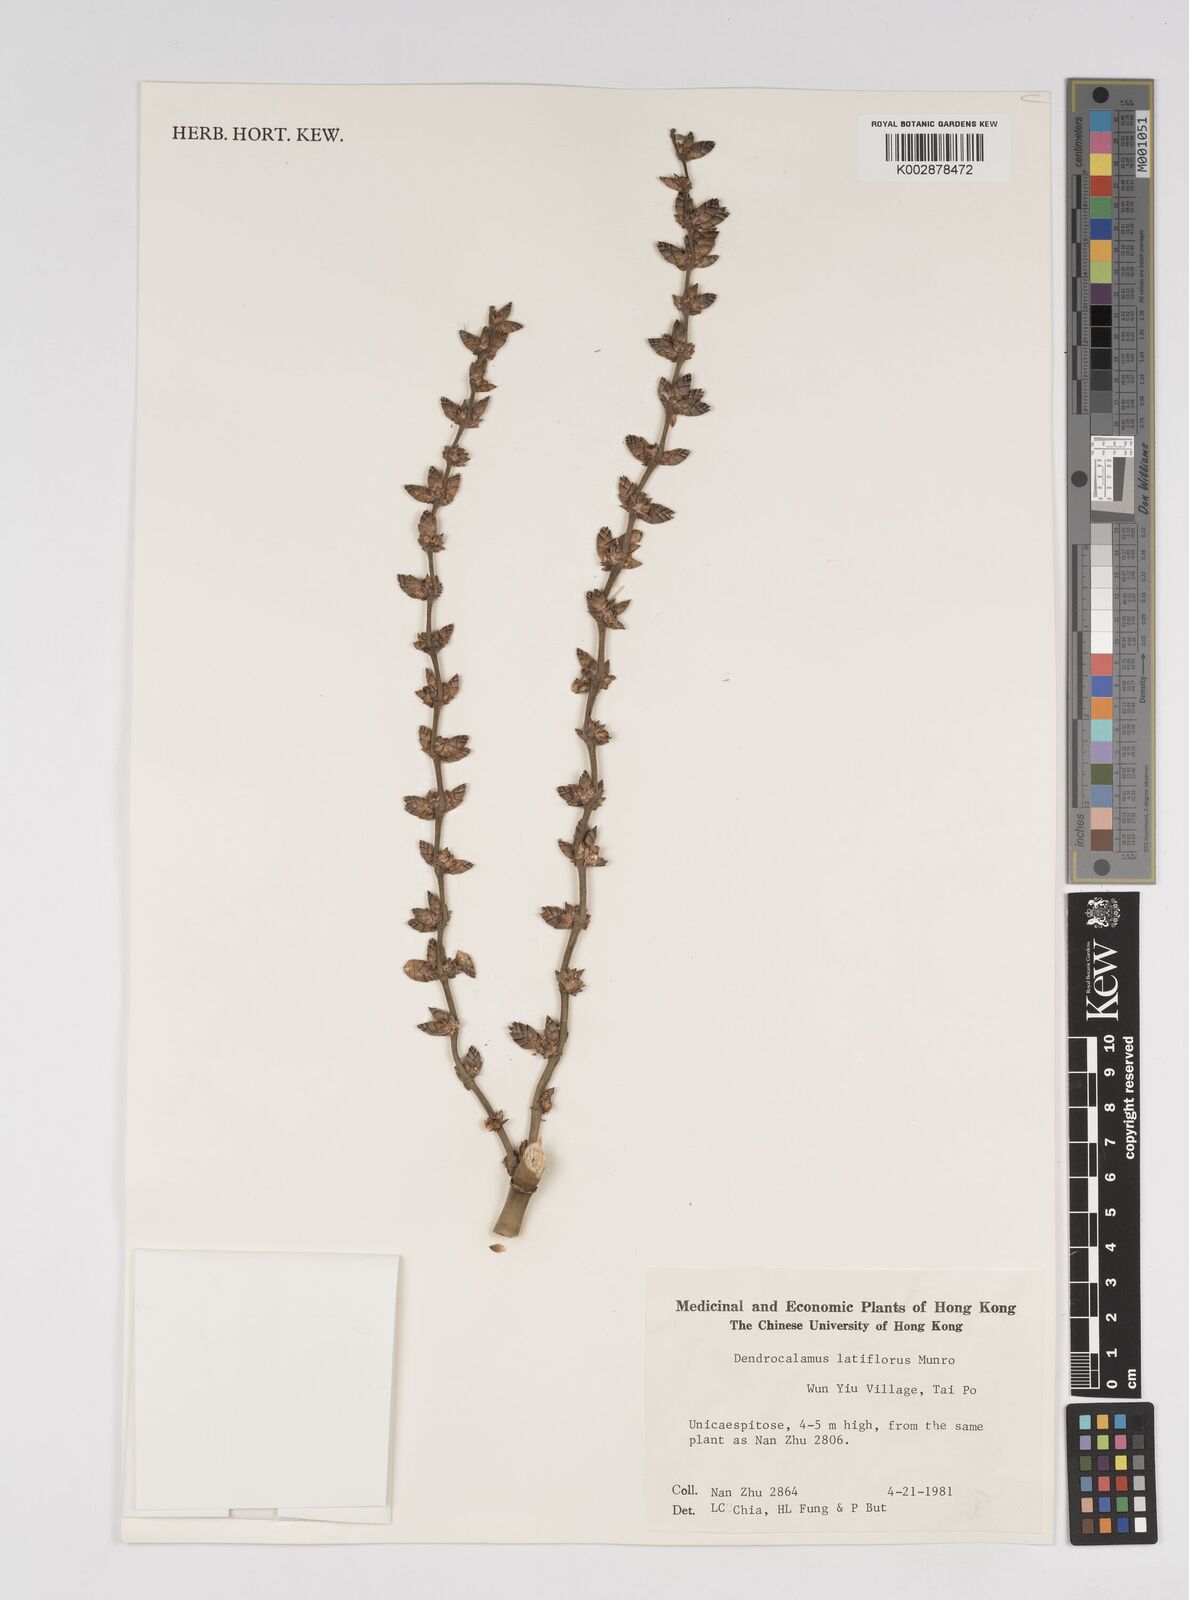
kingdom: Plantae
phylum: Tracheophyta
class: Liliopsida
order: Poales
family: Poaceae
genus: Dendrocalamus
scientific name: Dendrocalamus latiflorus
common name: Giant bamboo
